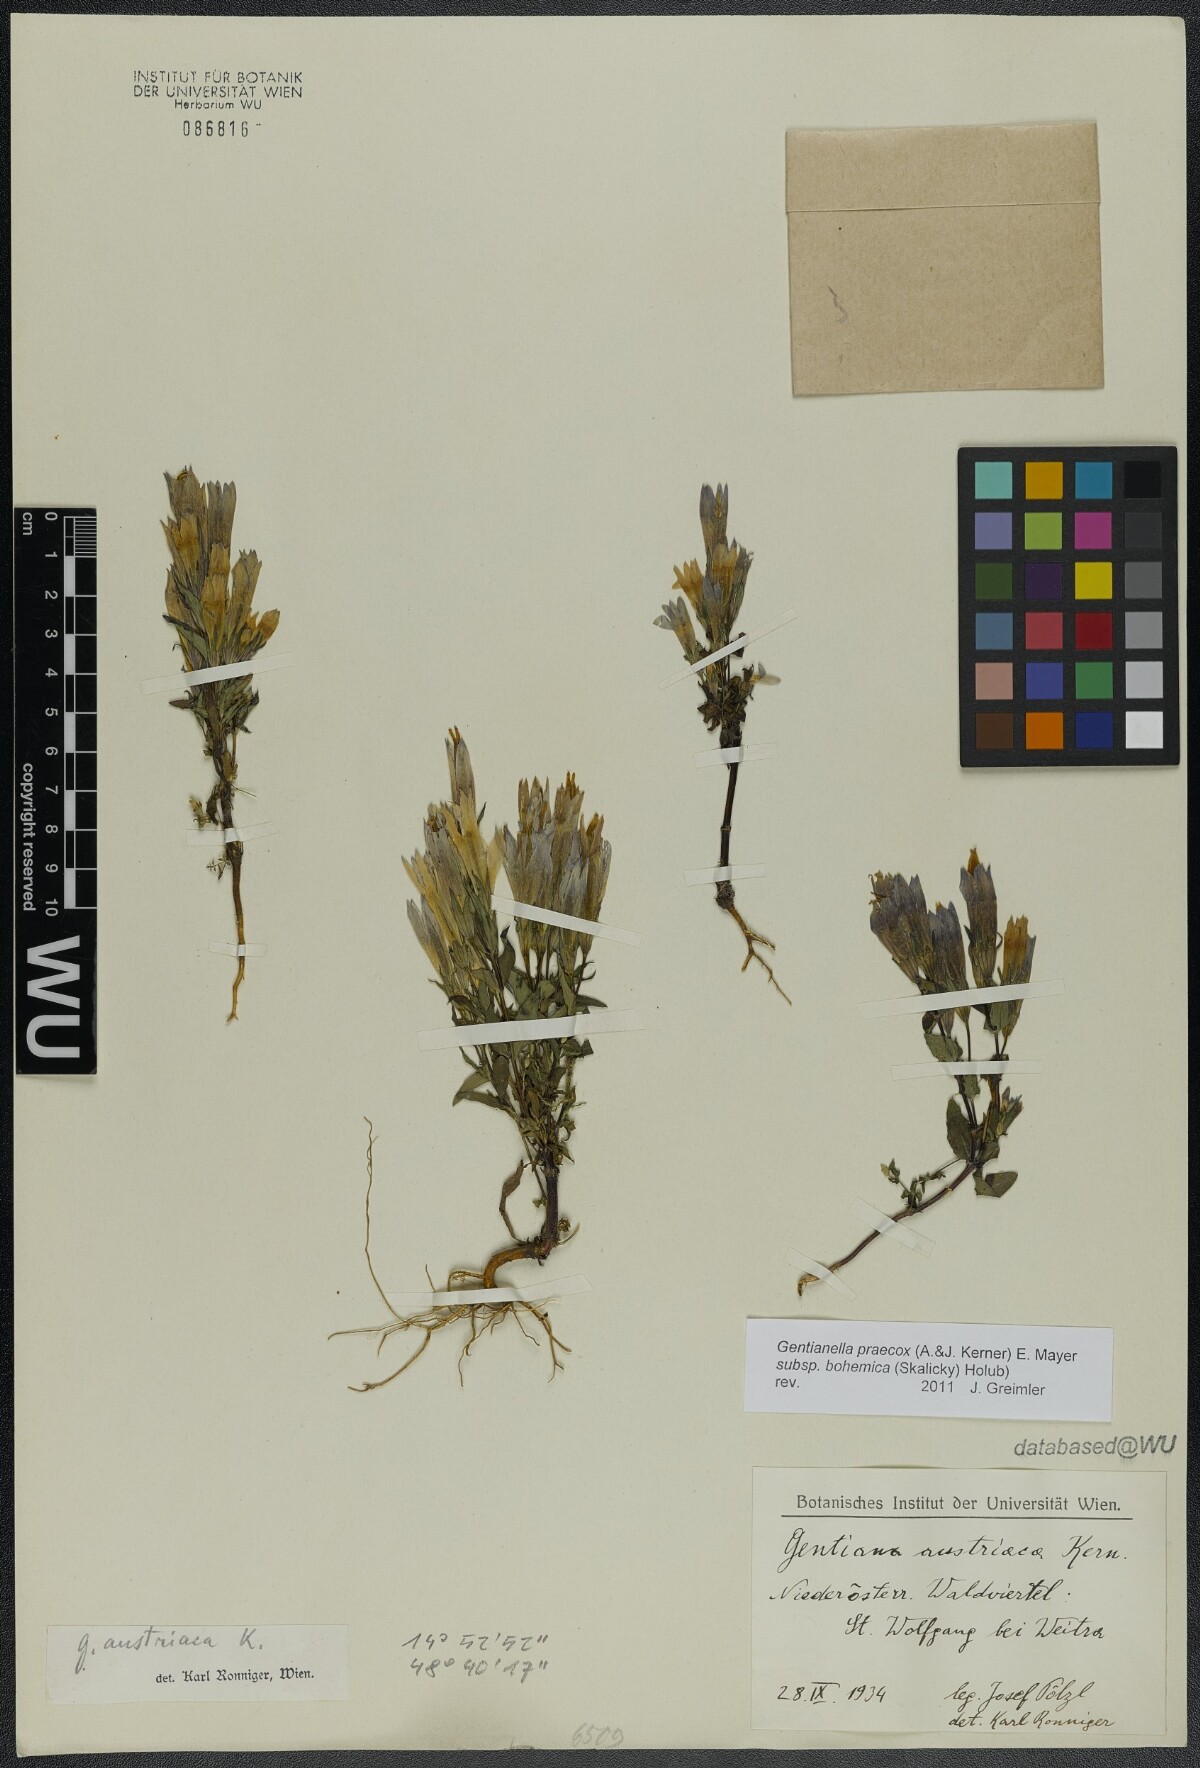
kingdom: Plantae
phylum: Tracheophyta
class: Magnoliopsida
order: Gentianales
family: Gentianaceae
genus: Gentianella
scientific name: Gentianella praecox
